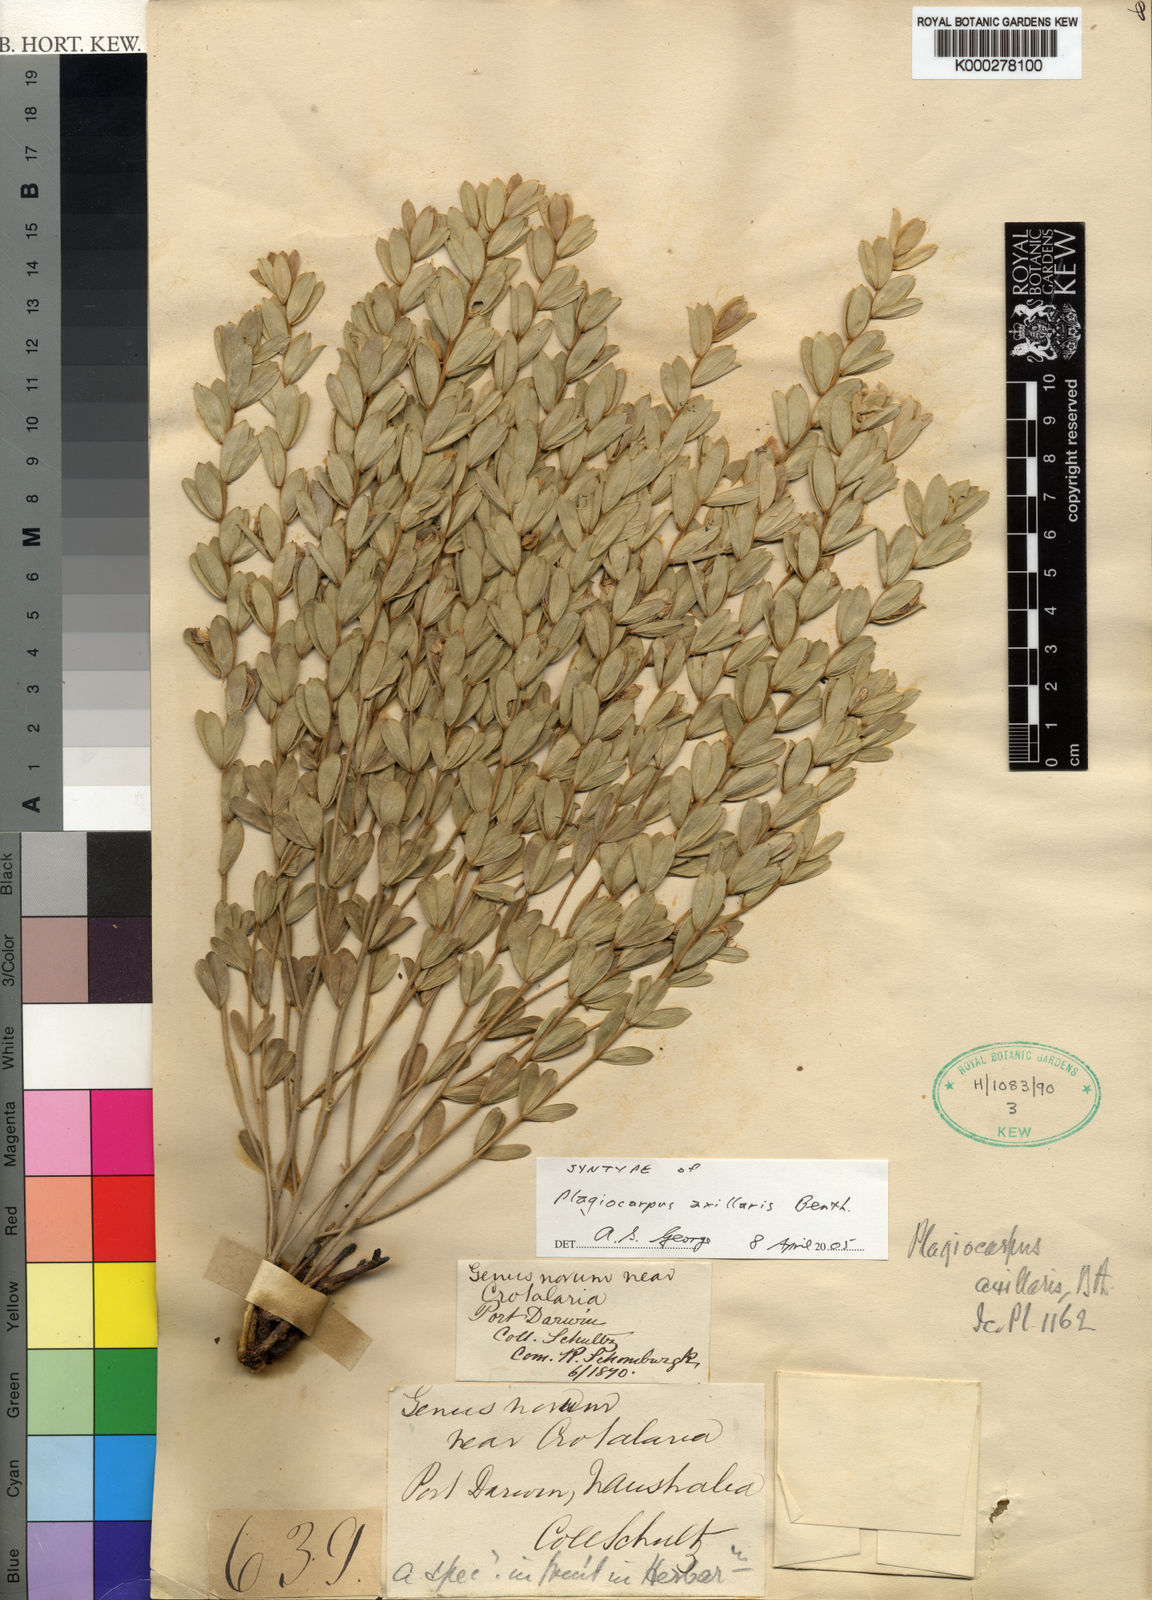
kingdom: Plantae
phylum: Tracheophyta
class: Magnoliopsida
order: Fabales
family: Fabaceae
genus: Plagiocarpus
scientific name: Plagiocarpus axillaris
